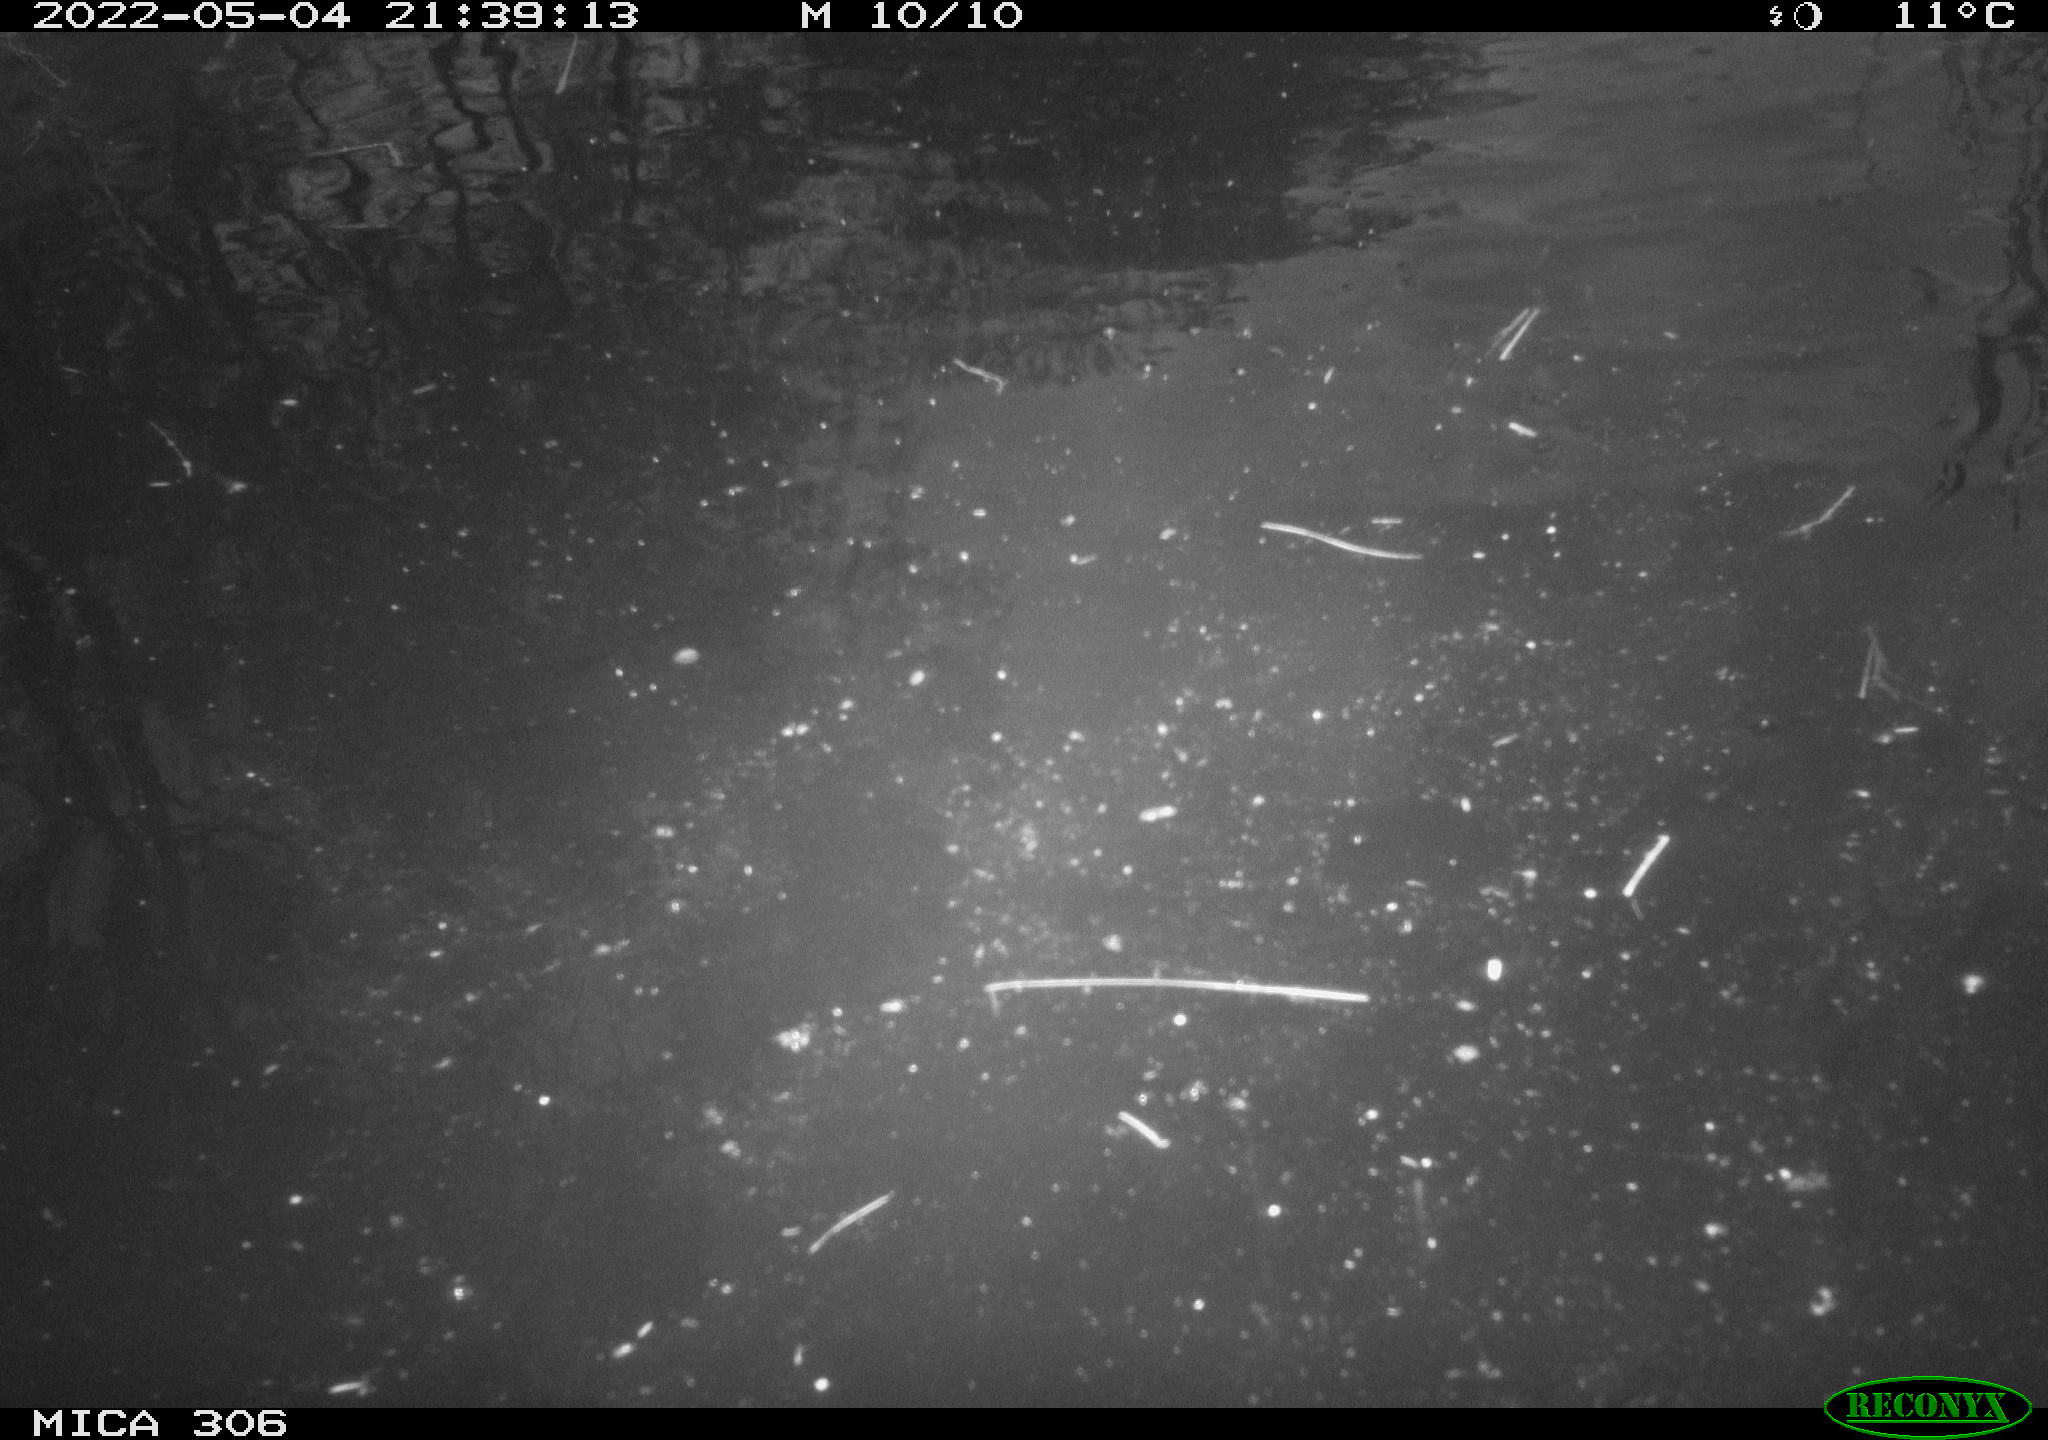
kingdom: Animalia
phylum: Chordata
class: Mammalia
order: Rodentia
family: Cricetidae
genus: Ondatra
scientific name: Ondatra zibethicus
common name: Muskrat
